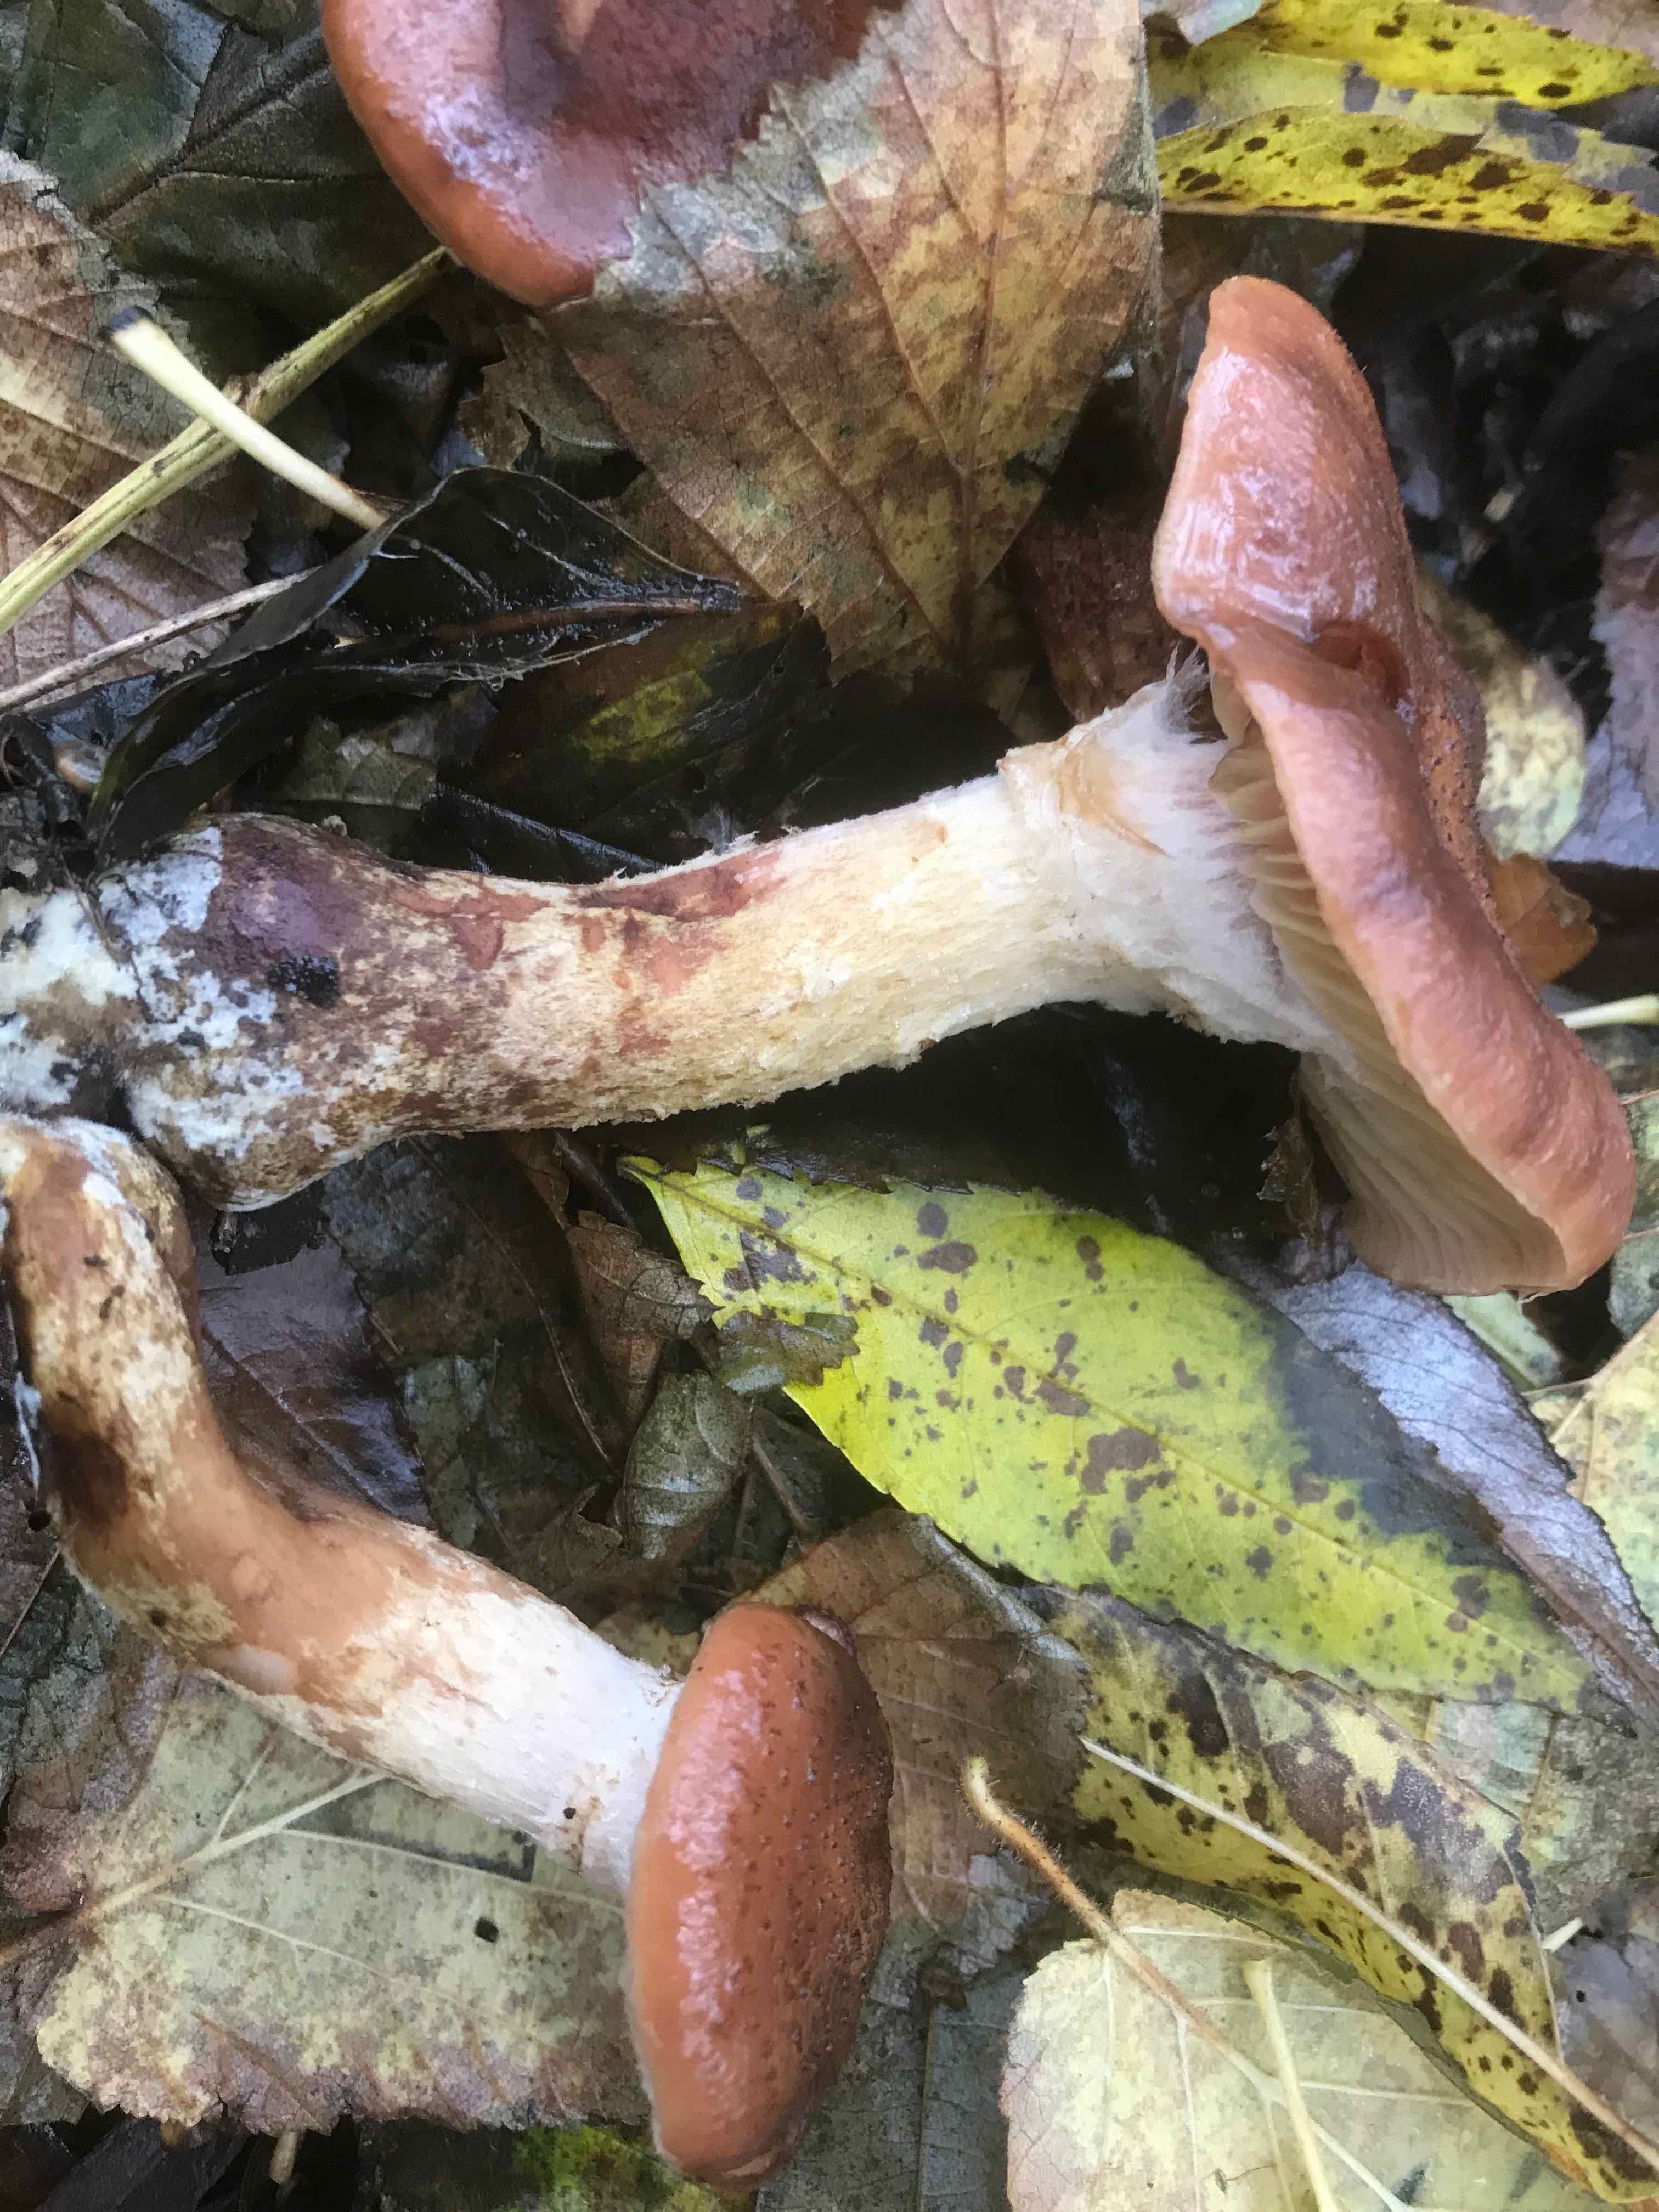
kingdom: Fungi
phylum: Basidiomycota
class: Agaricomycetes
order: Agaricales
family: Physalacriaceae
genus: Armillaria
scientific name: Armillaria lutea
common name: køllestokket honningsvamp
